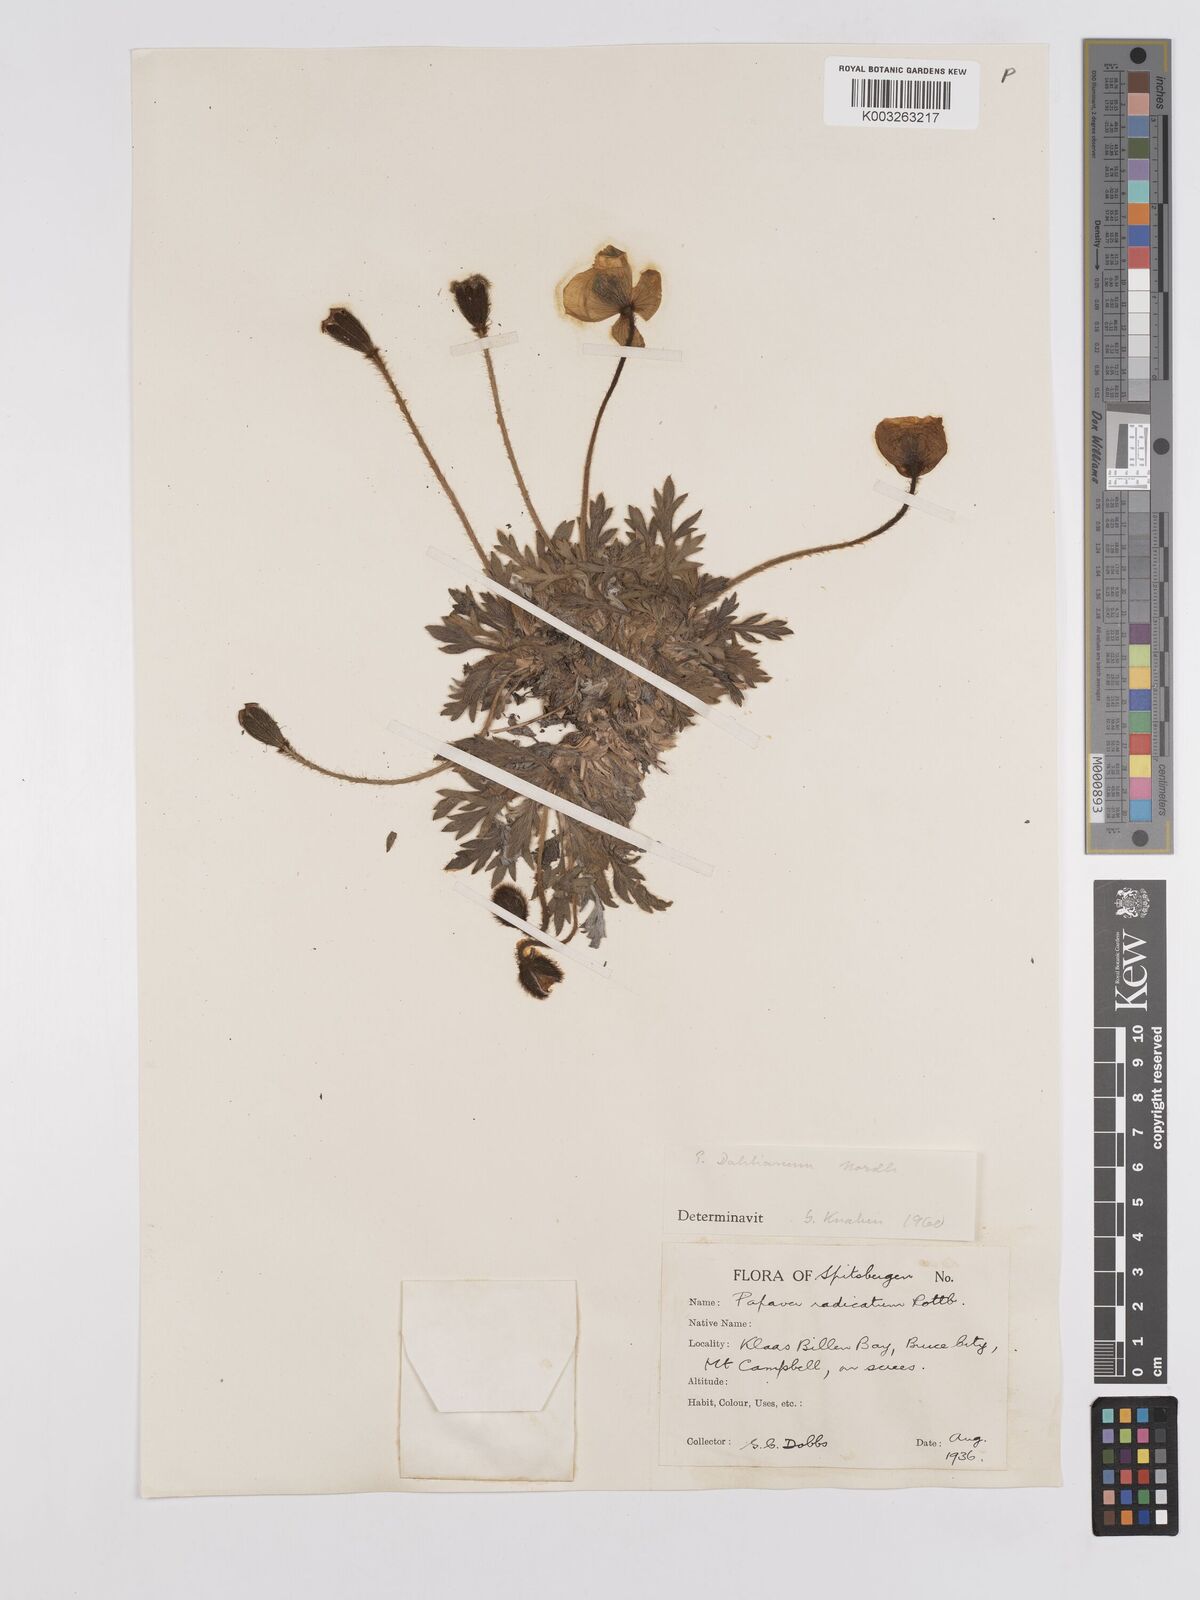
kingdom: Plantae
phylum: Tracheophyta
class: Magnoliopsida
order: Ranunculales
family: Papaveraceae
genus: Papaver
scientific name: Papaver radicatum
